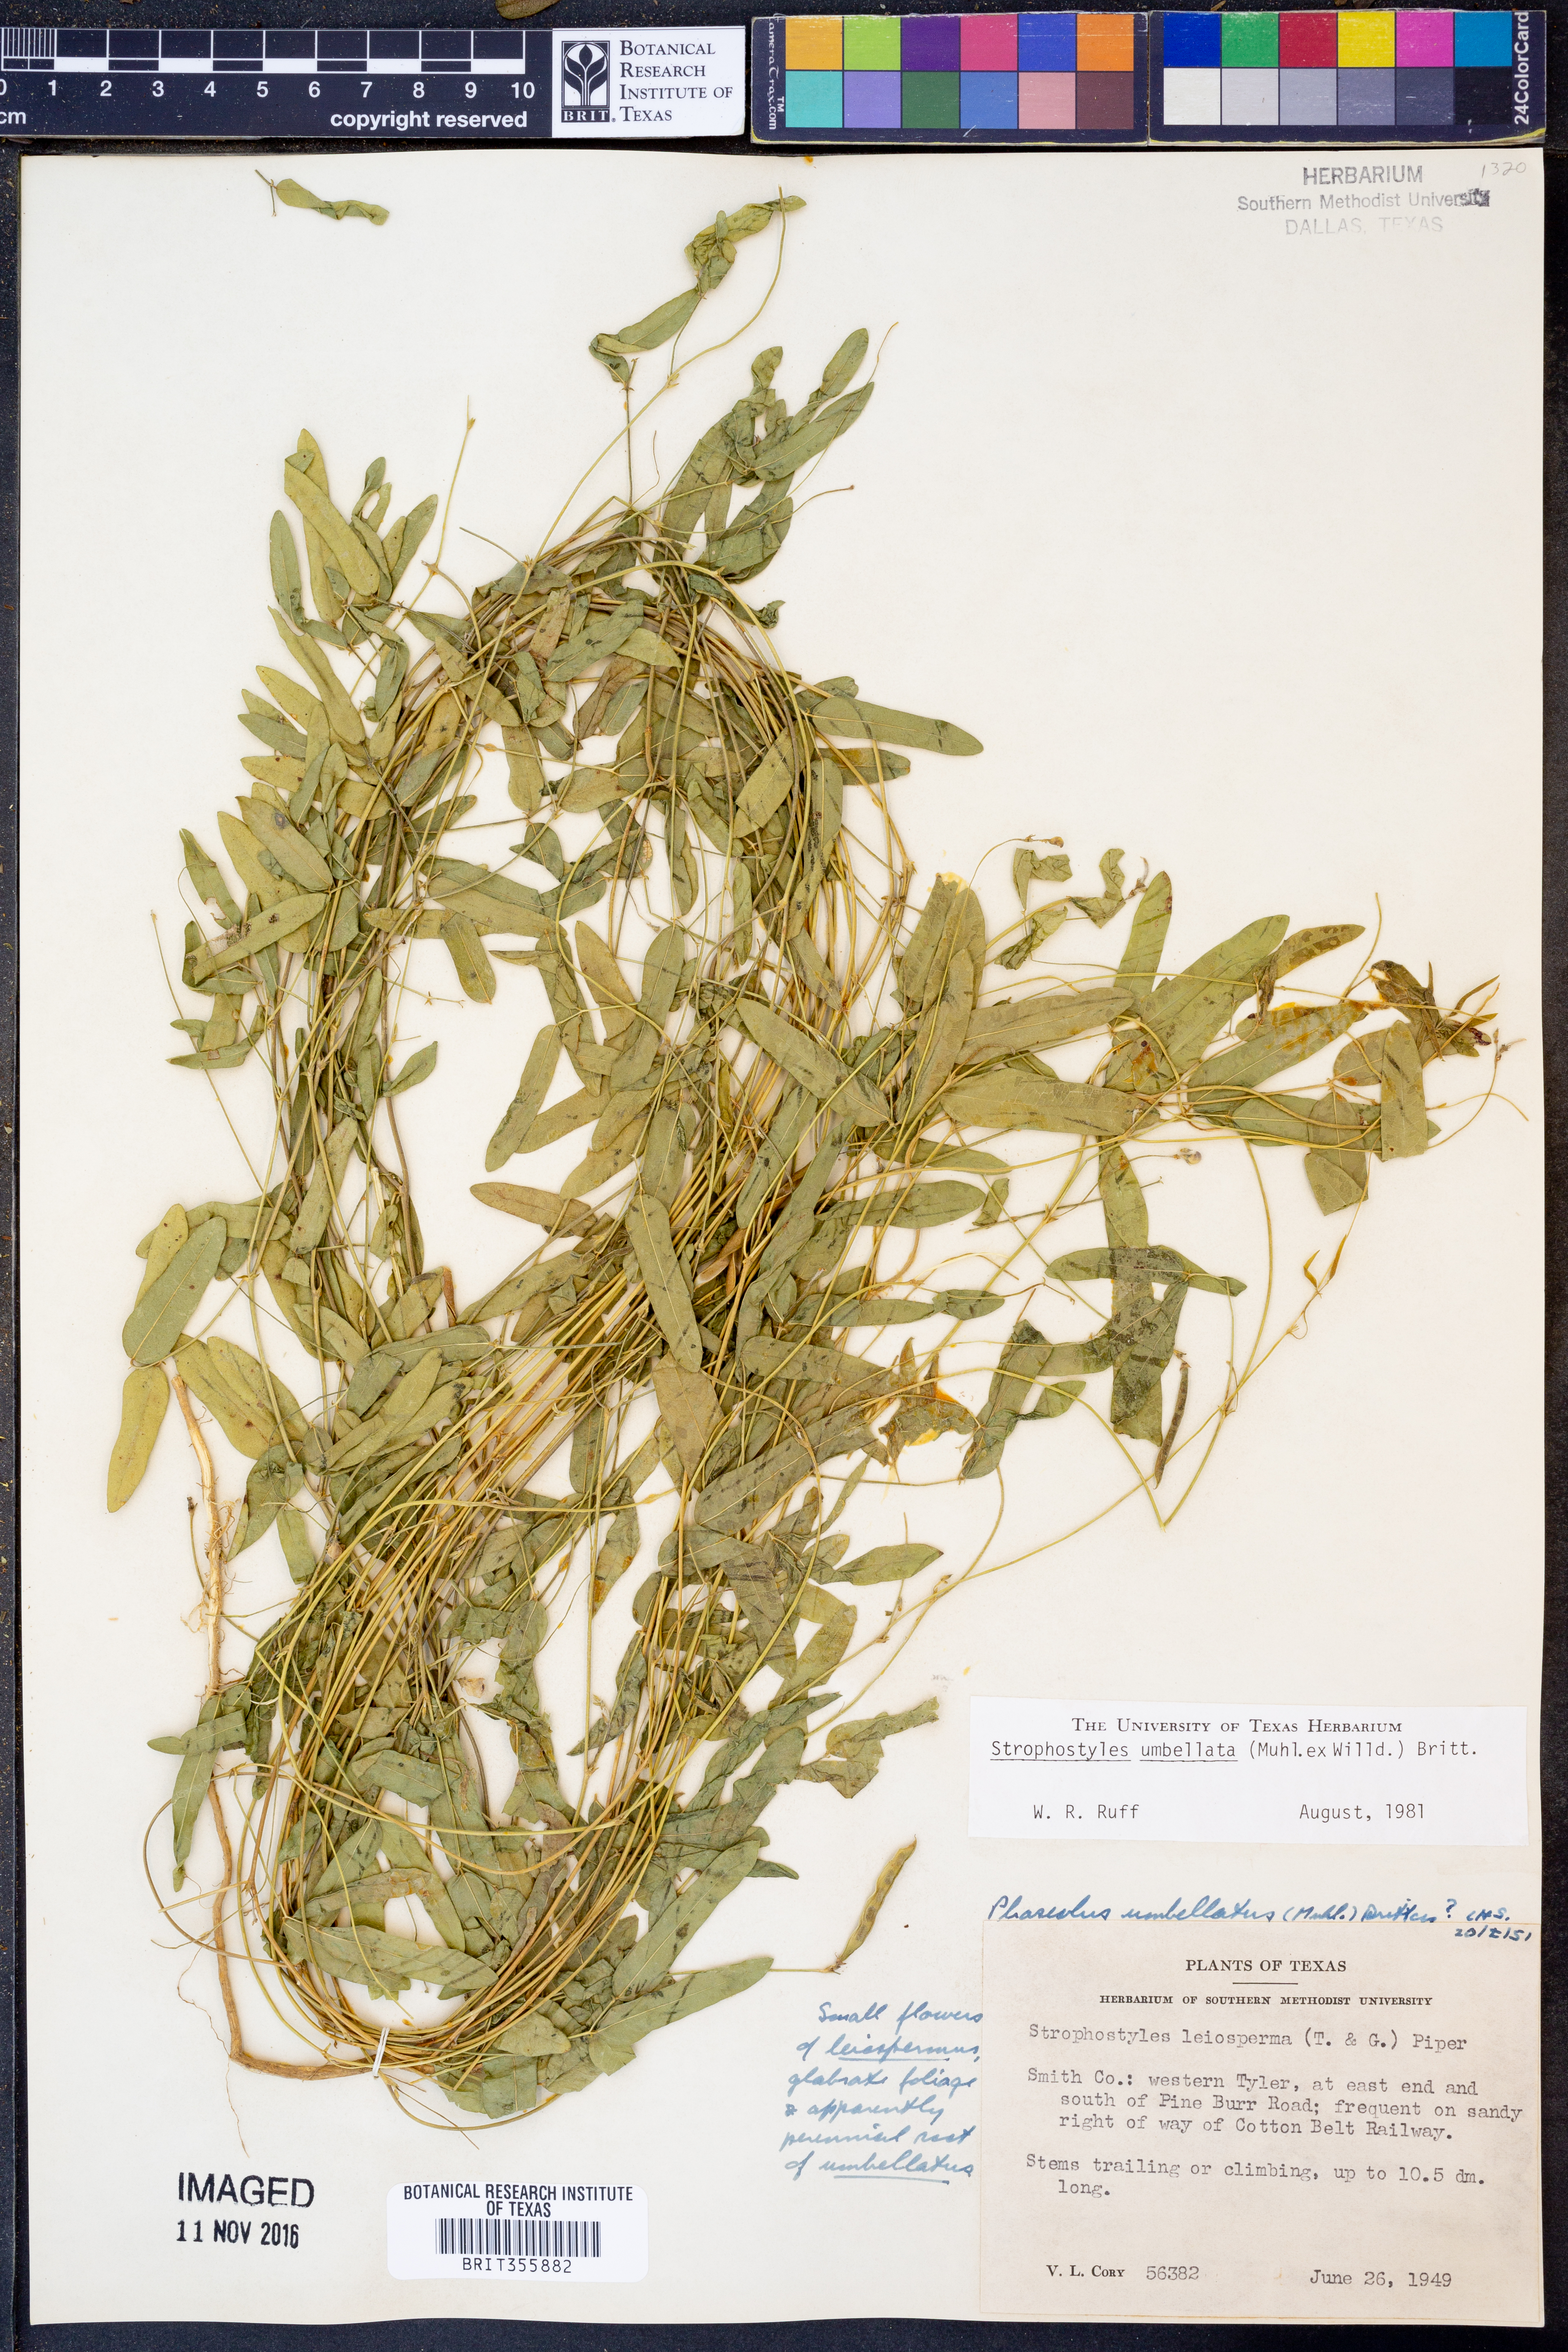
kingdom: Plantae
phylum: Tracheophyta
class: Magnoliopsida
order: Fabales
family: Fabaceae
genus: Strophostyles
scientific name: Strophostyles umbellata
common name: Perennial wild bean
